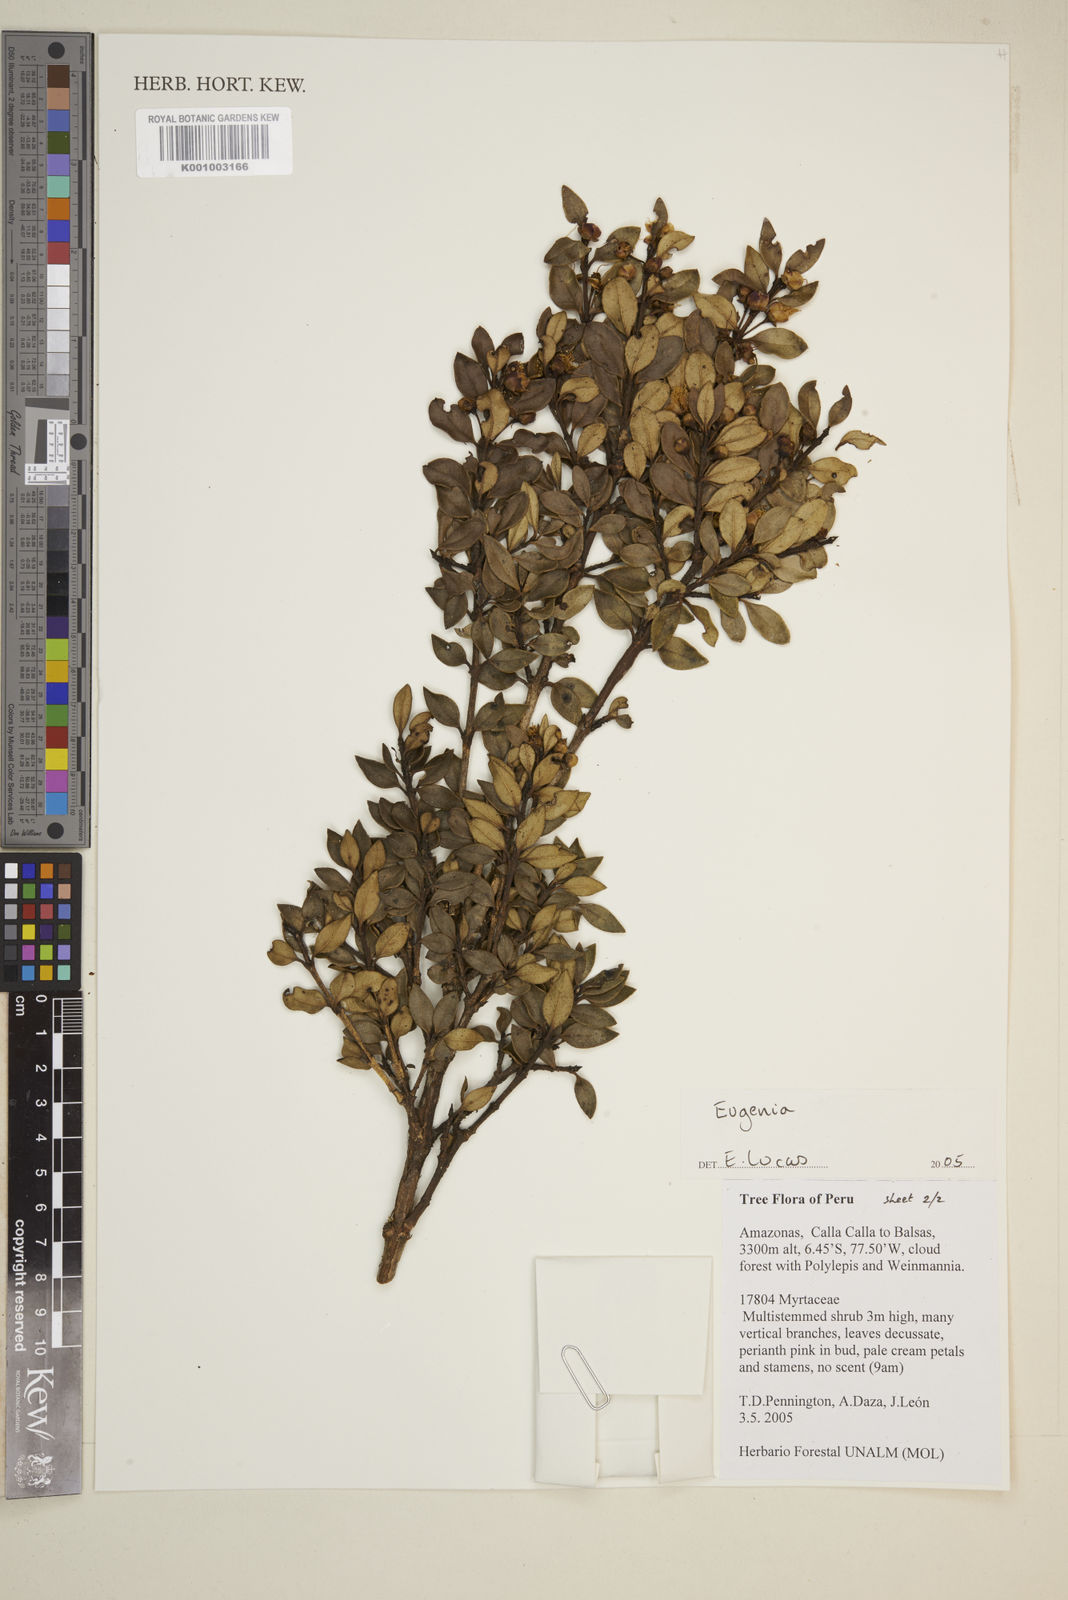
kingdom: Plantae
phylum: Tracheophyta
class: Magnoliopsida
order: Myrtales
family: Myrtaceae
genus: Eugenia
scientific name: Eugenia
